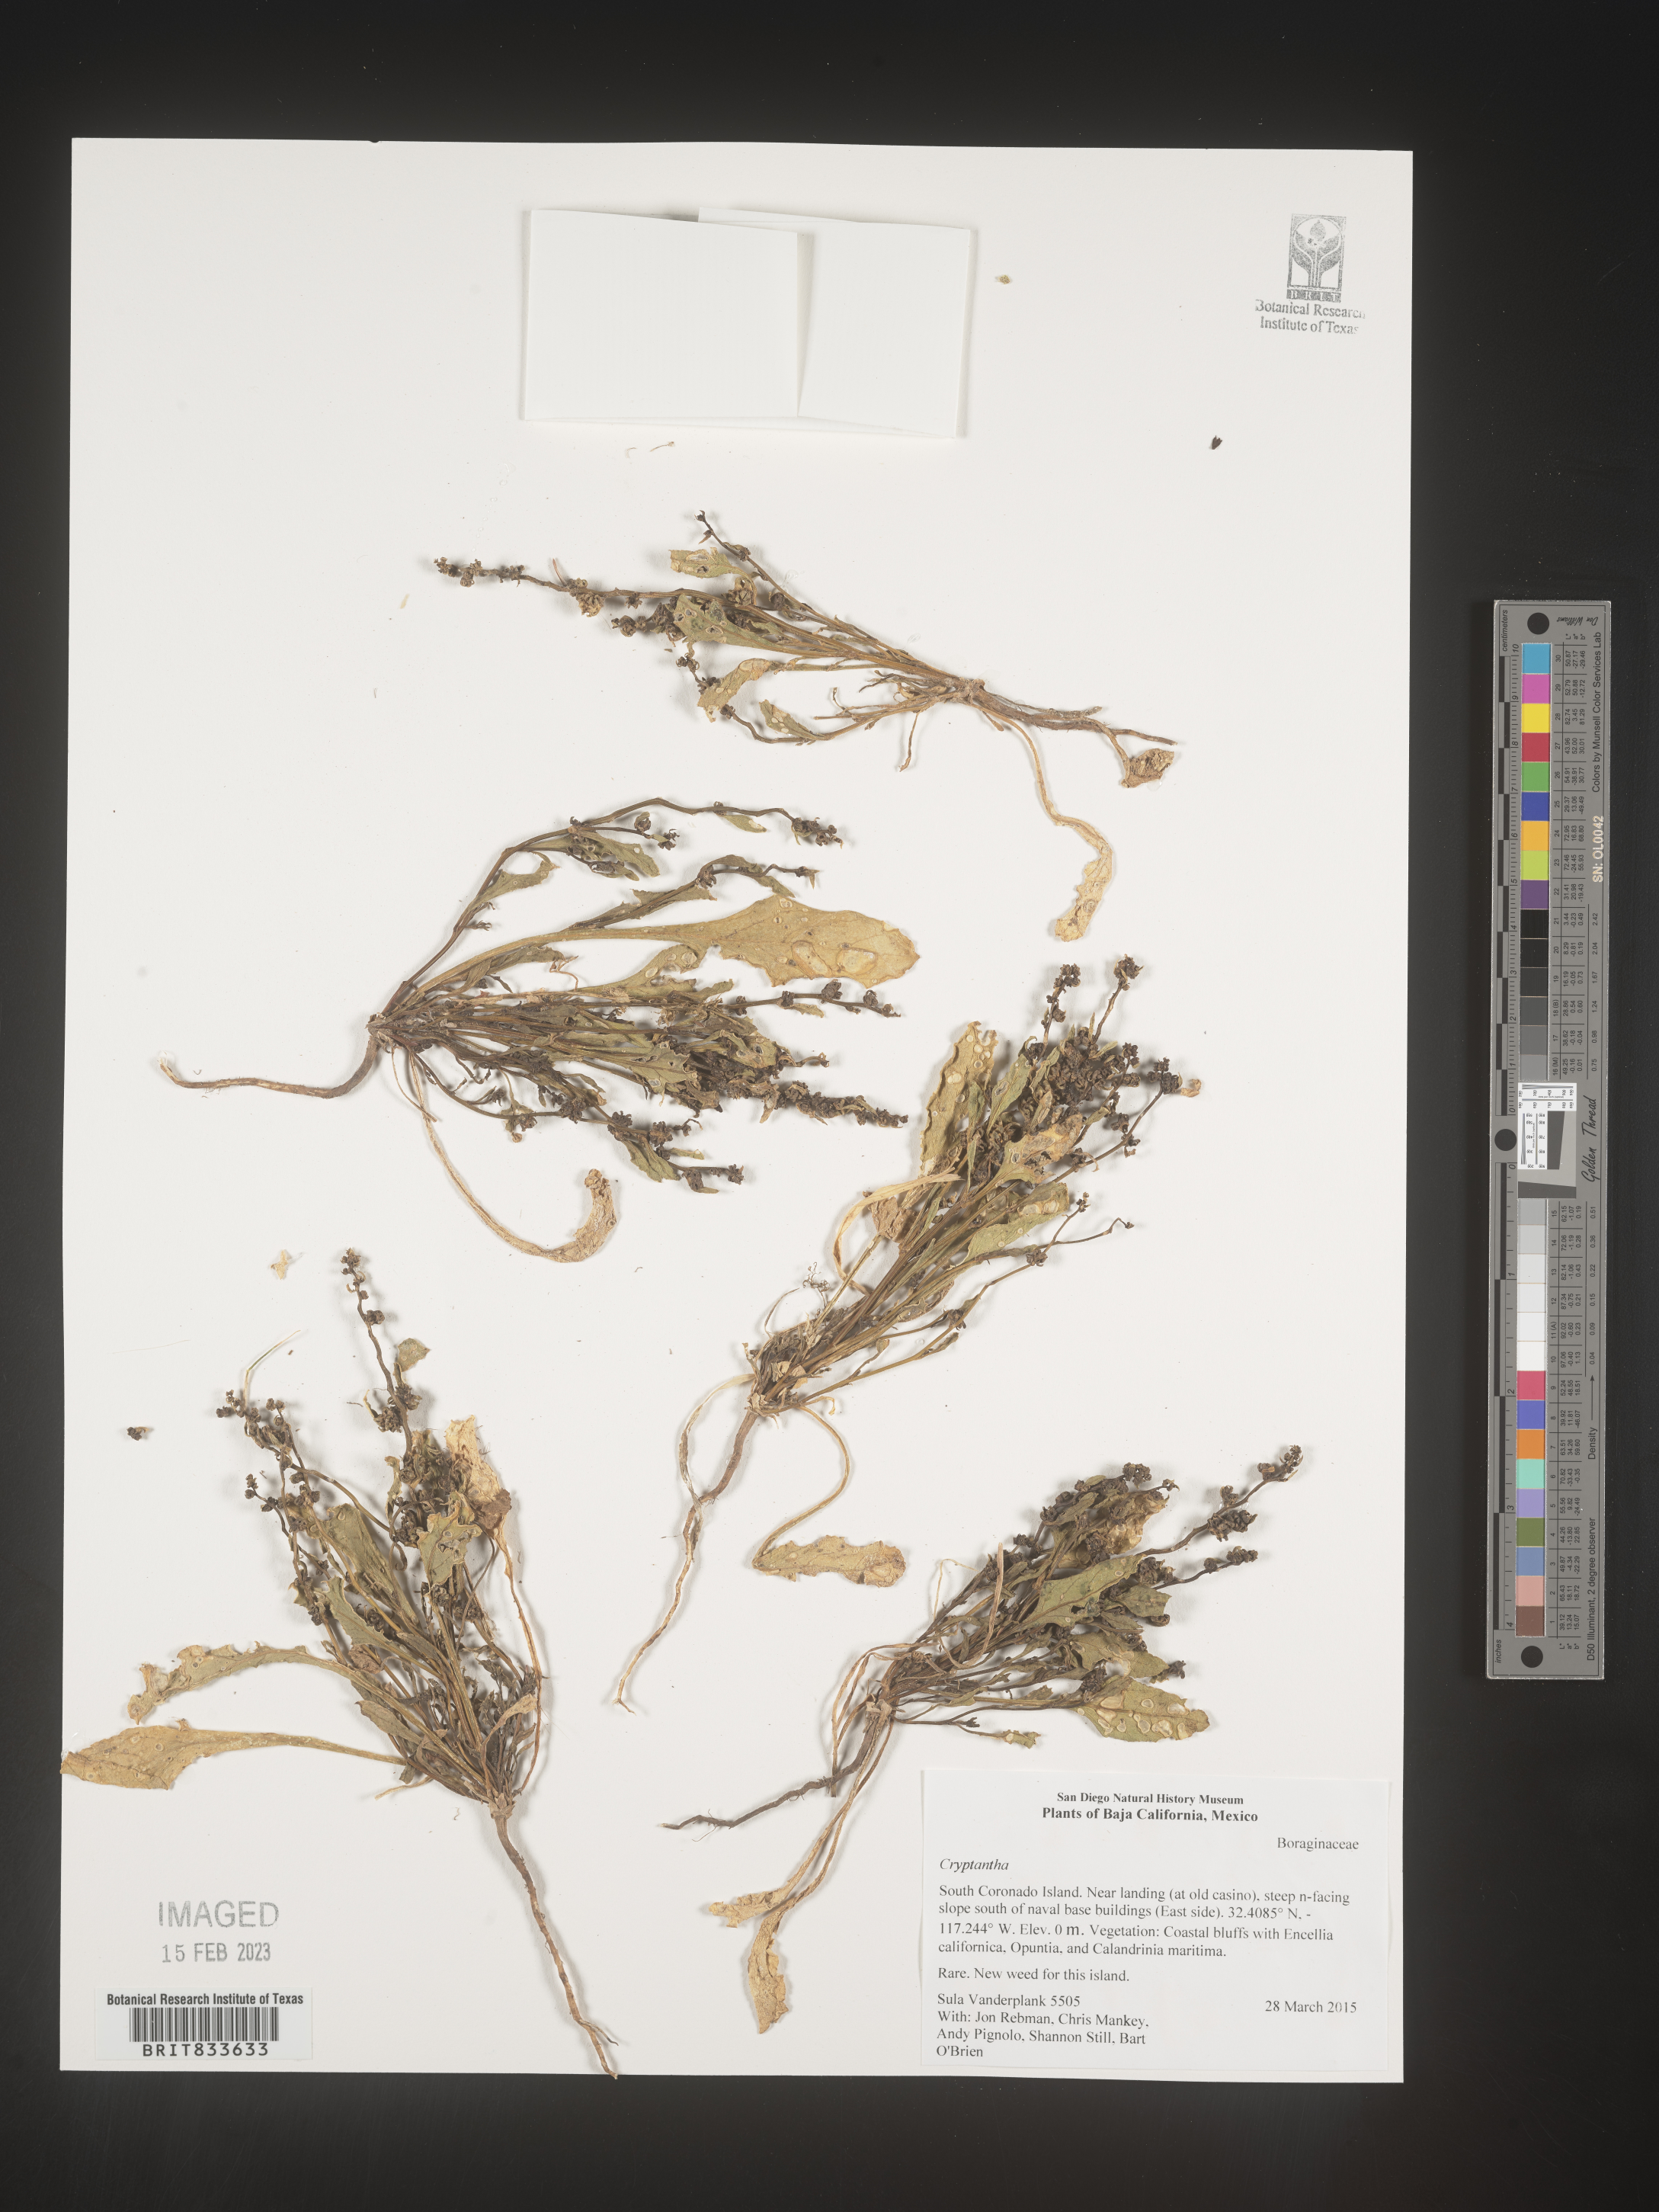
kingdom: Plantae
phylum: Tracheophyta
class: Magnoliopsida
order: Boraginales
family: Boraginaceae
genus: Cryptantha
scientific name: Cryptantha
